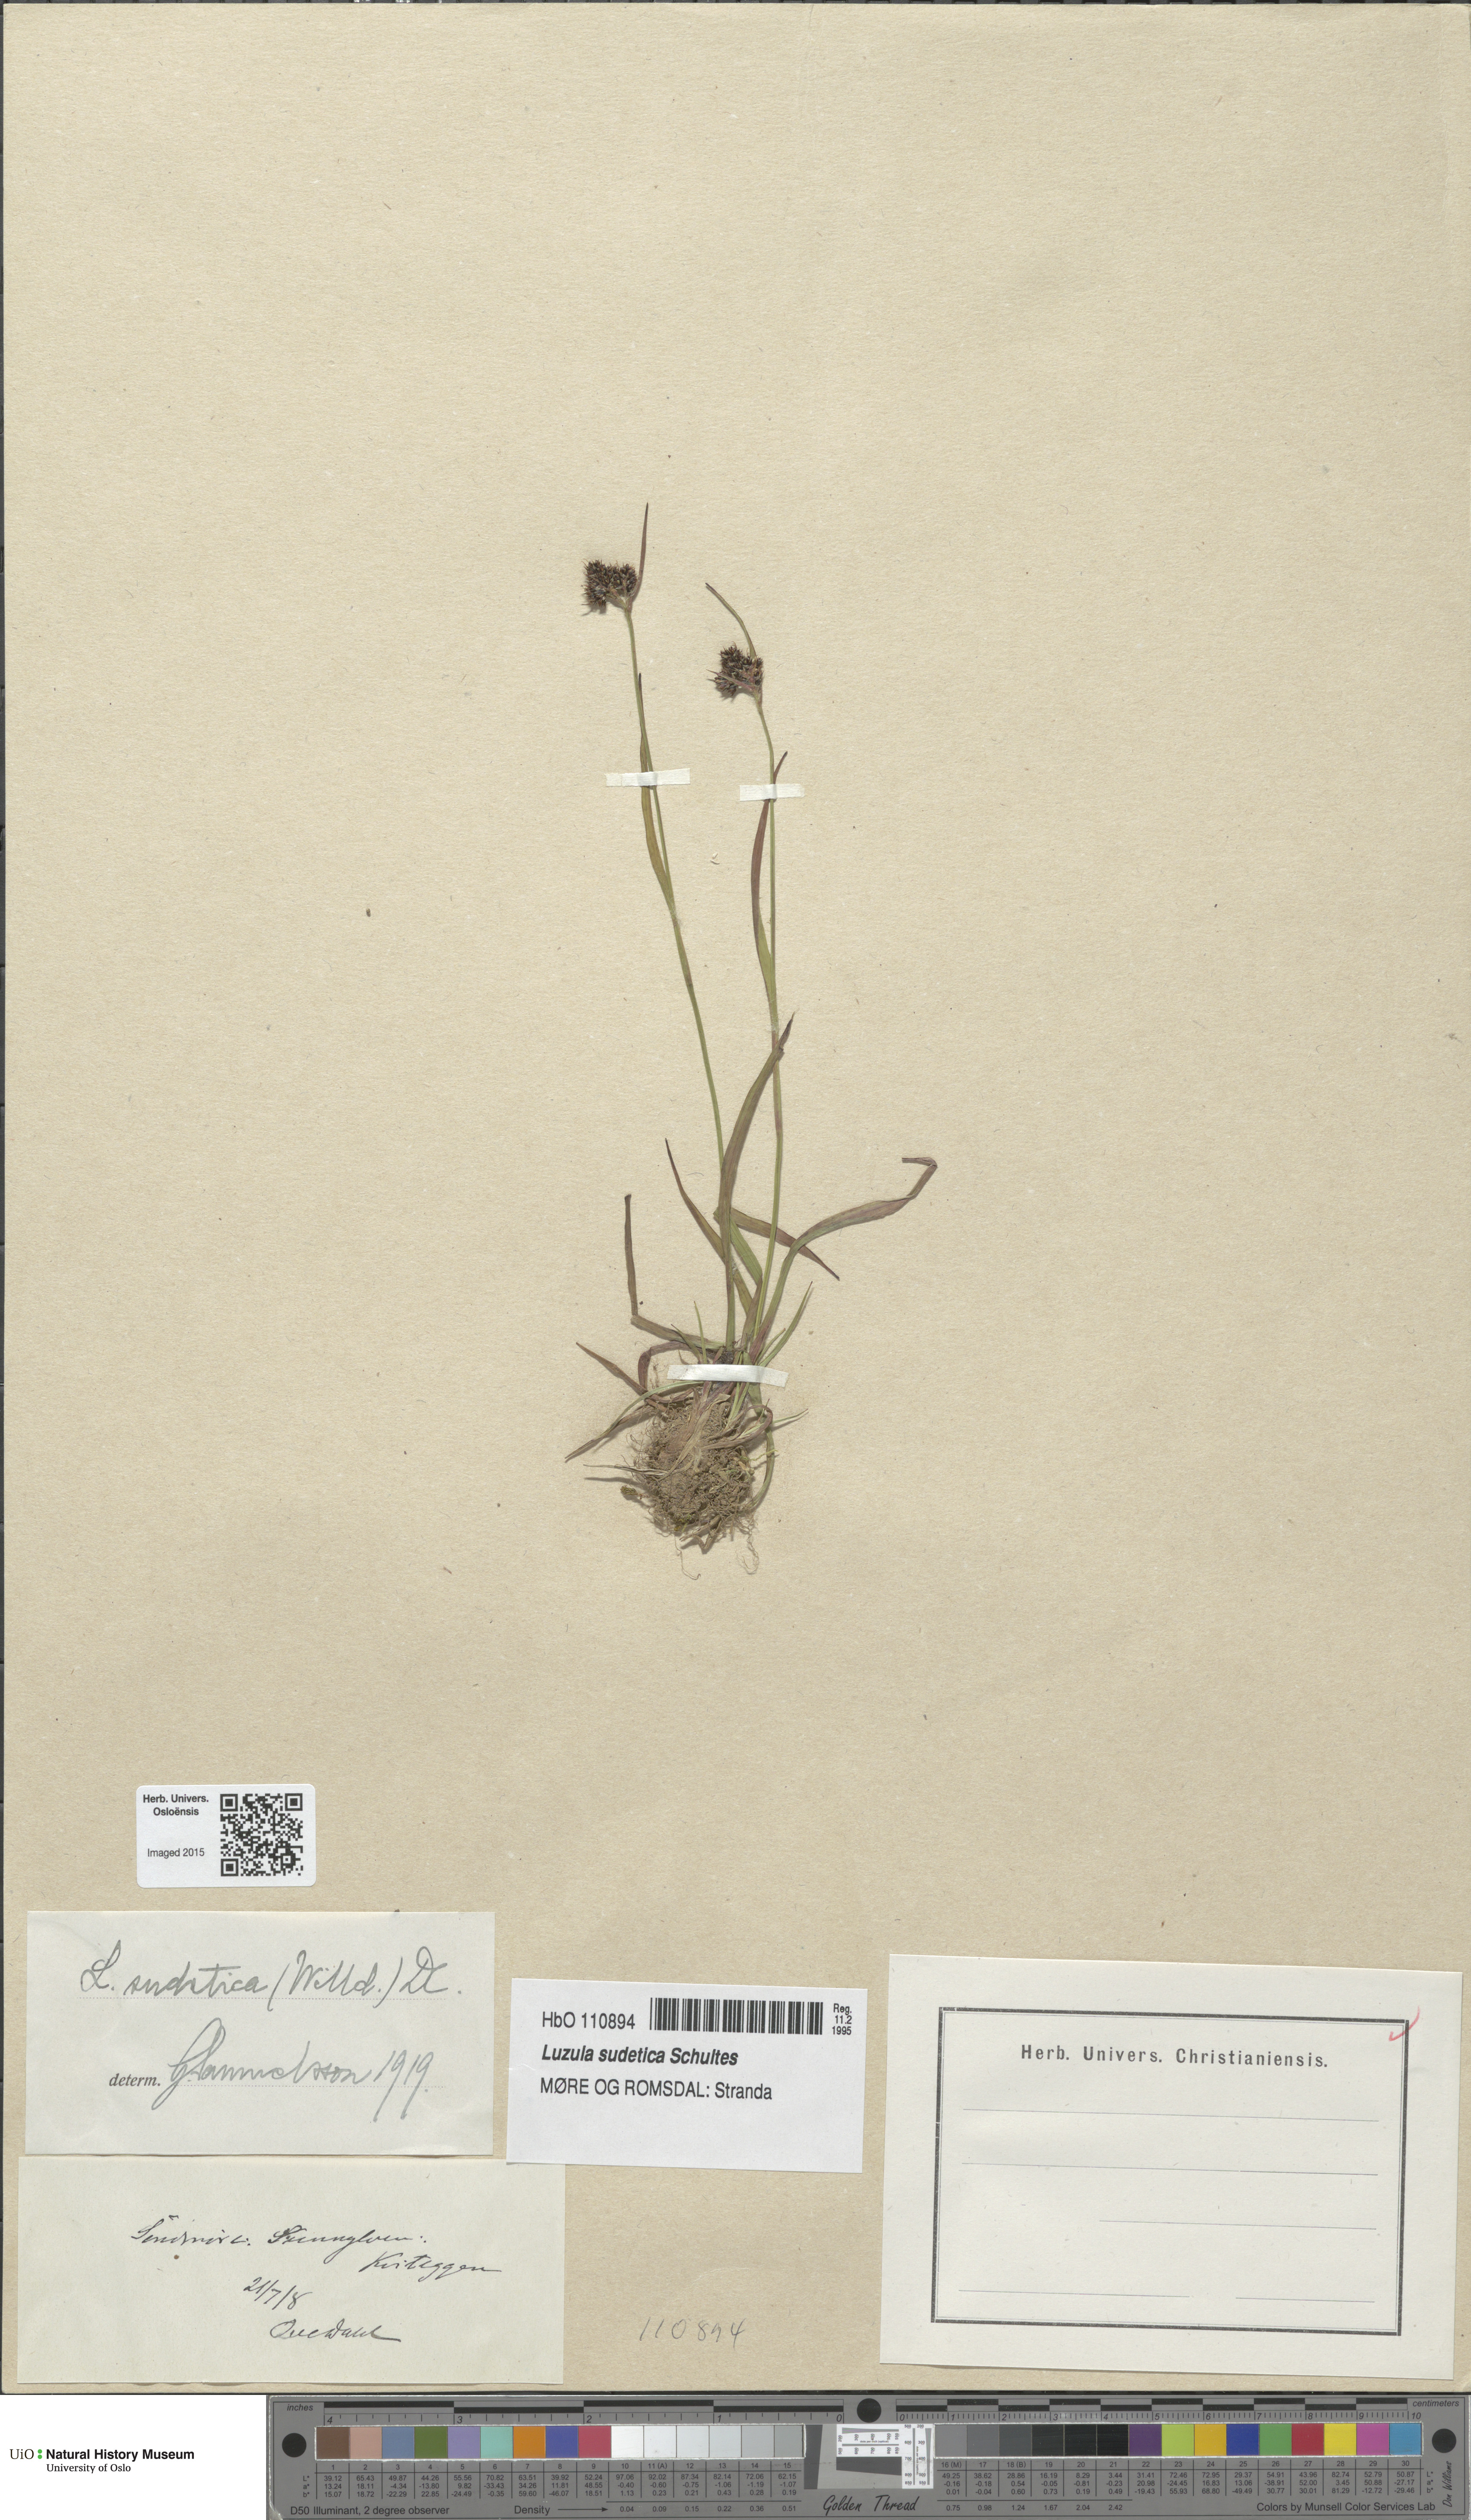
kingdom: Plantae
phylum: Tracheophyta
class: Liliopsida
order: Poales
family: Juncaceae
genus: Luzula
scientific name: Luzula sudetica
